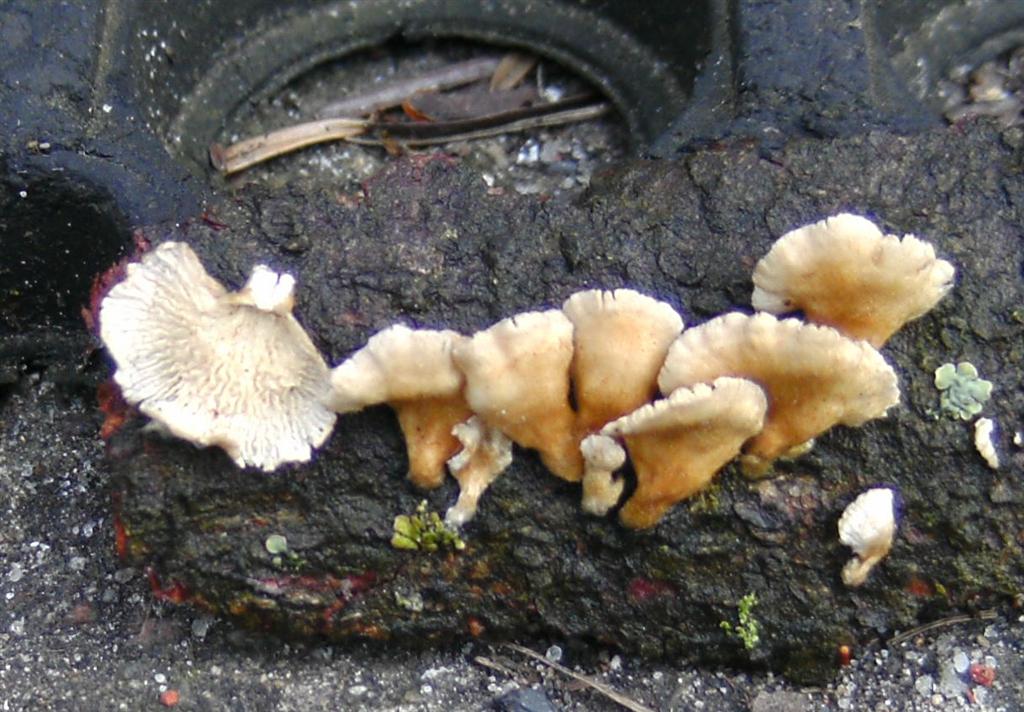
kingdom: Fungi
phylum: Basidiomycota
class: Agaricomycetes
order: Amylocorticiales
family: Amylocorticiaceae
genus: Plicaturopsis
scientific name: Plicaturopsis crispa
